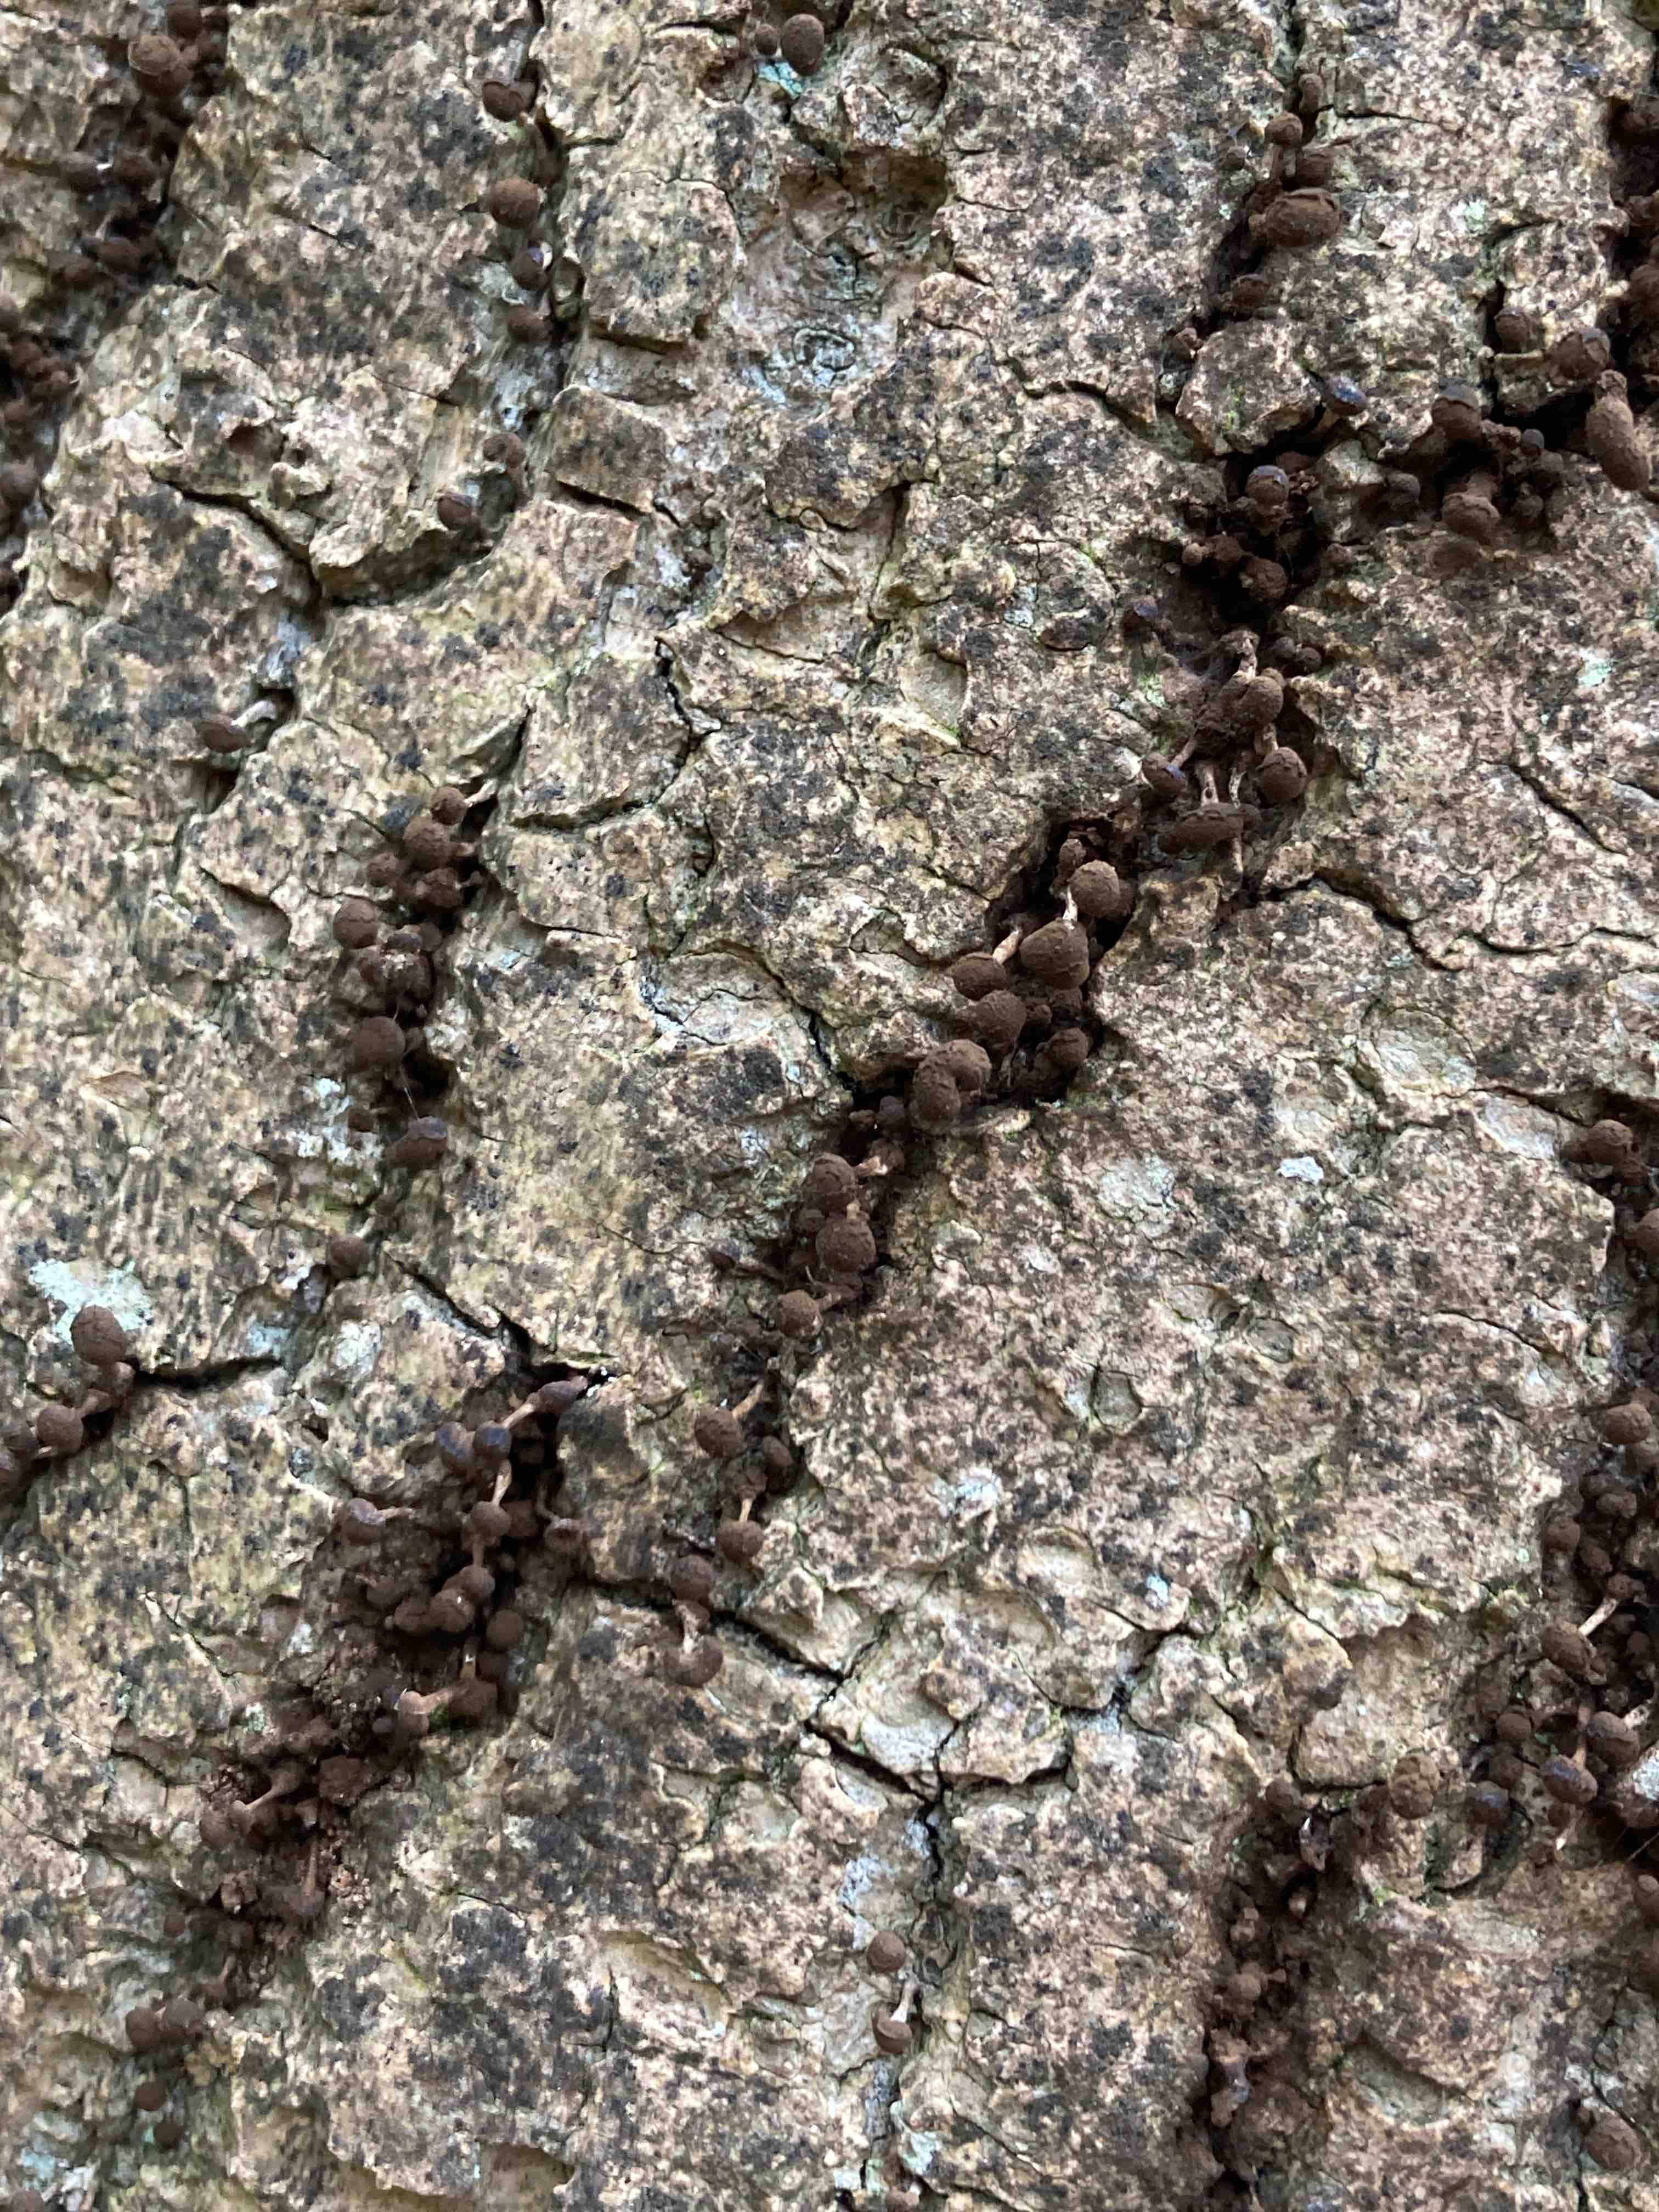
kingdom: Fungi
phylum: Basidiomycota
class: Atractiellomycetes
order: Atractiellales
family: Phleogenaceae
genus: Phleogena
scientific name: Phleogena faginea
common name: pudderkølle
